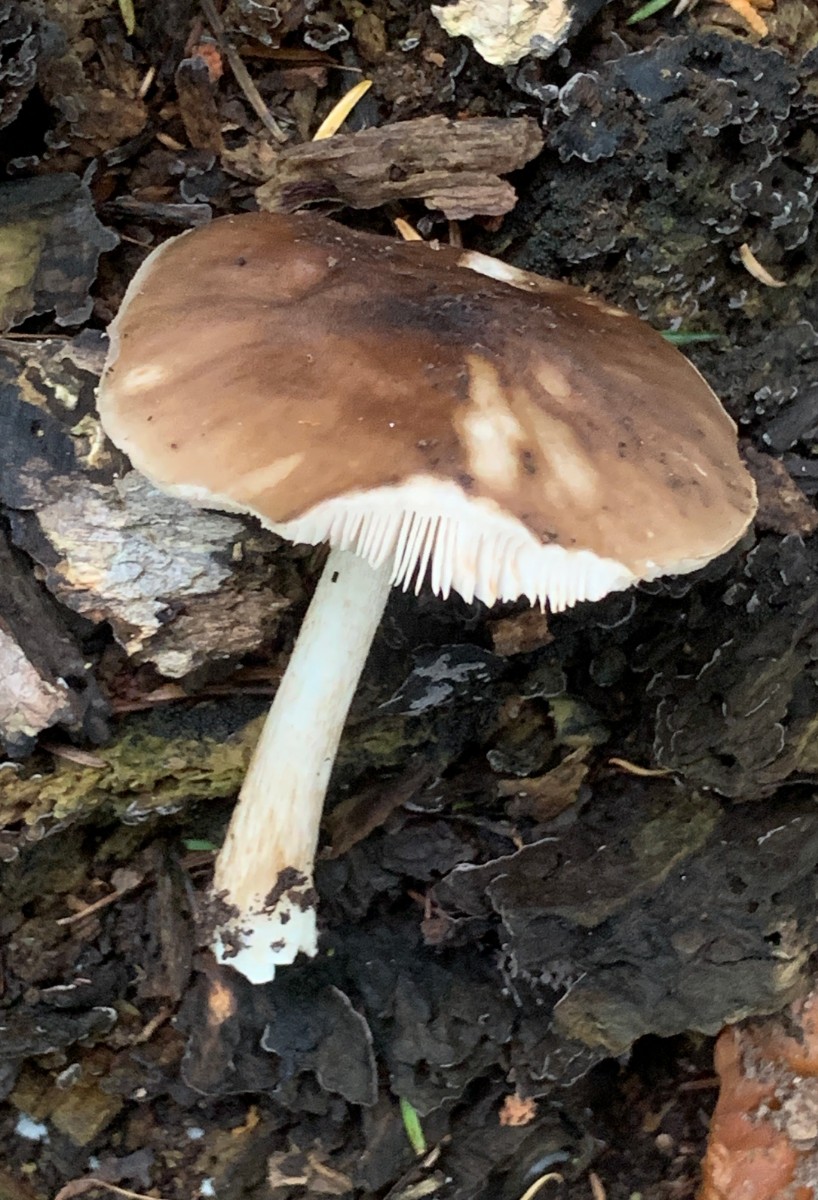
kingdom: Fungi
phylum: Basidiomycota
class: Agaricomycetes
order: Agaricales
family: Pluteaceae
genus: Pluteus
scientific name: Pluteus cervinus
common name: sodfarvet skærmhat
